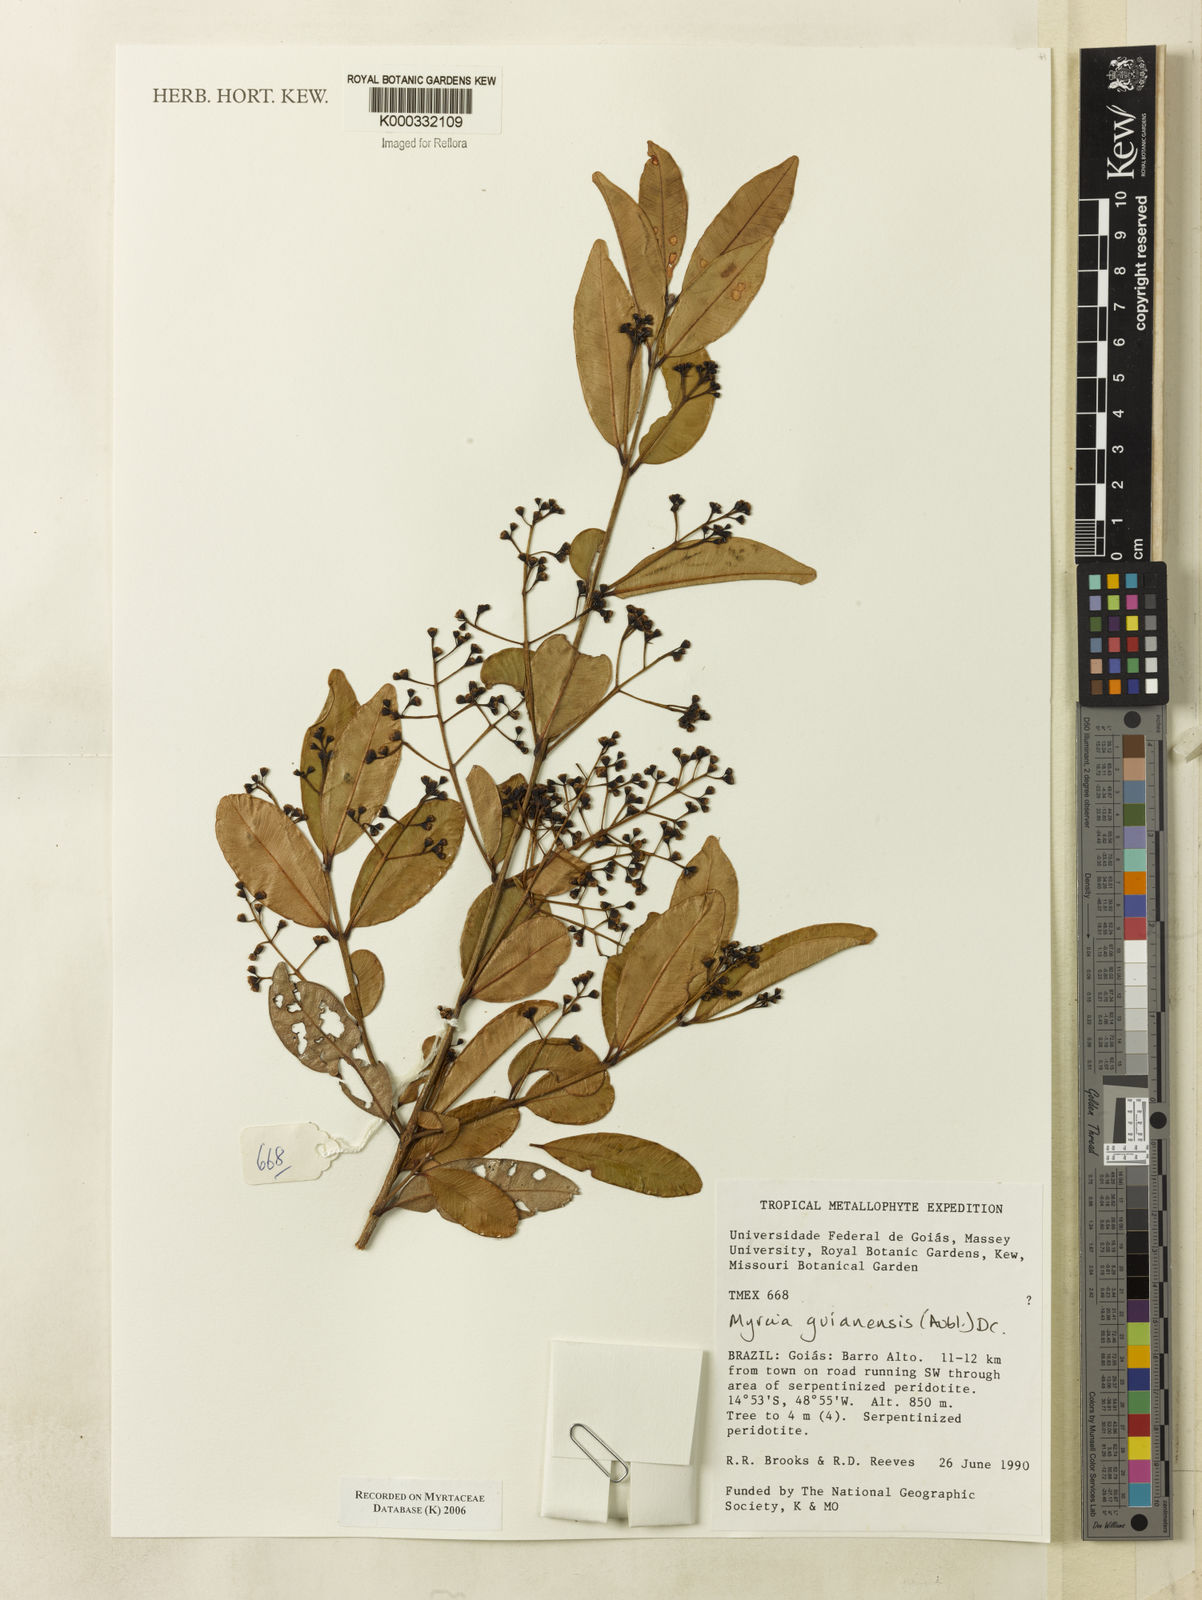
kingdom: Plantae
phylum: Tracheophyta
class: Magnoliopsida
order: Myrtales
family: Myrtaceae
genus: Myrcia
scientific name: Myrcia guianensis
